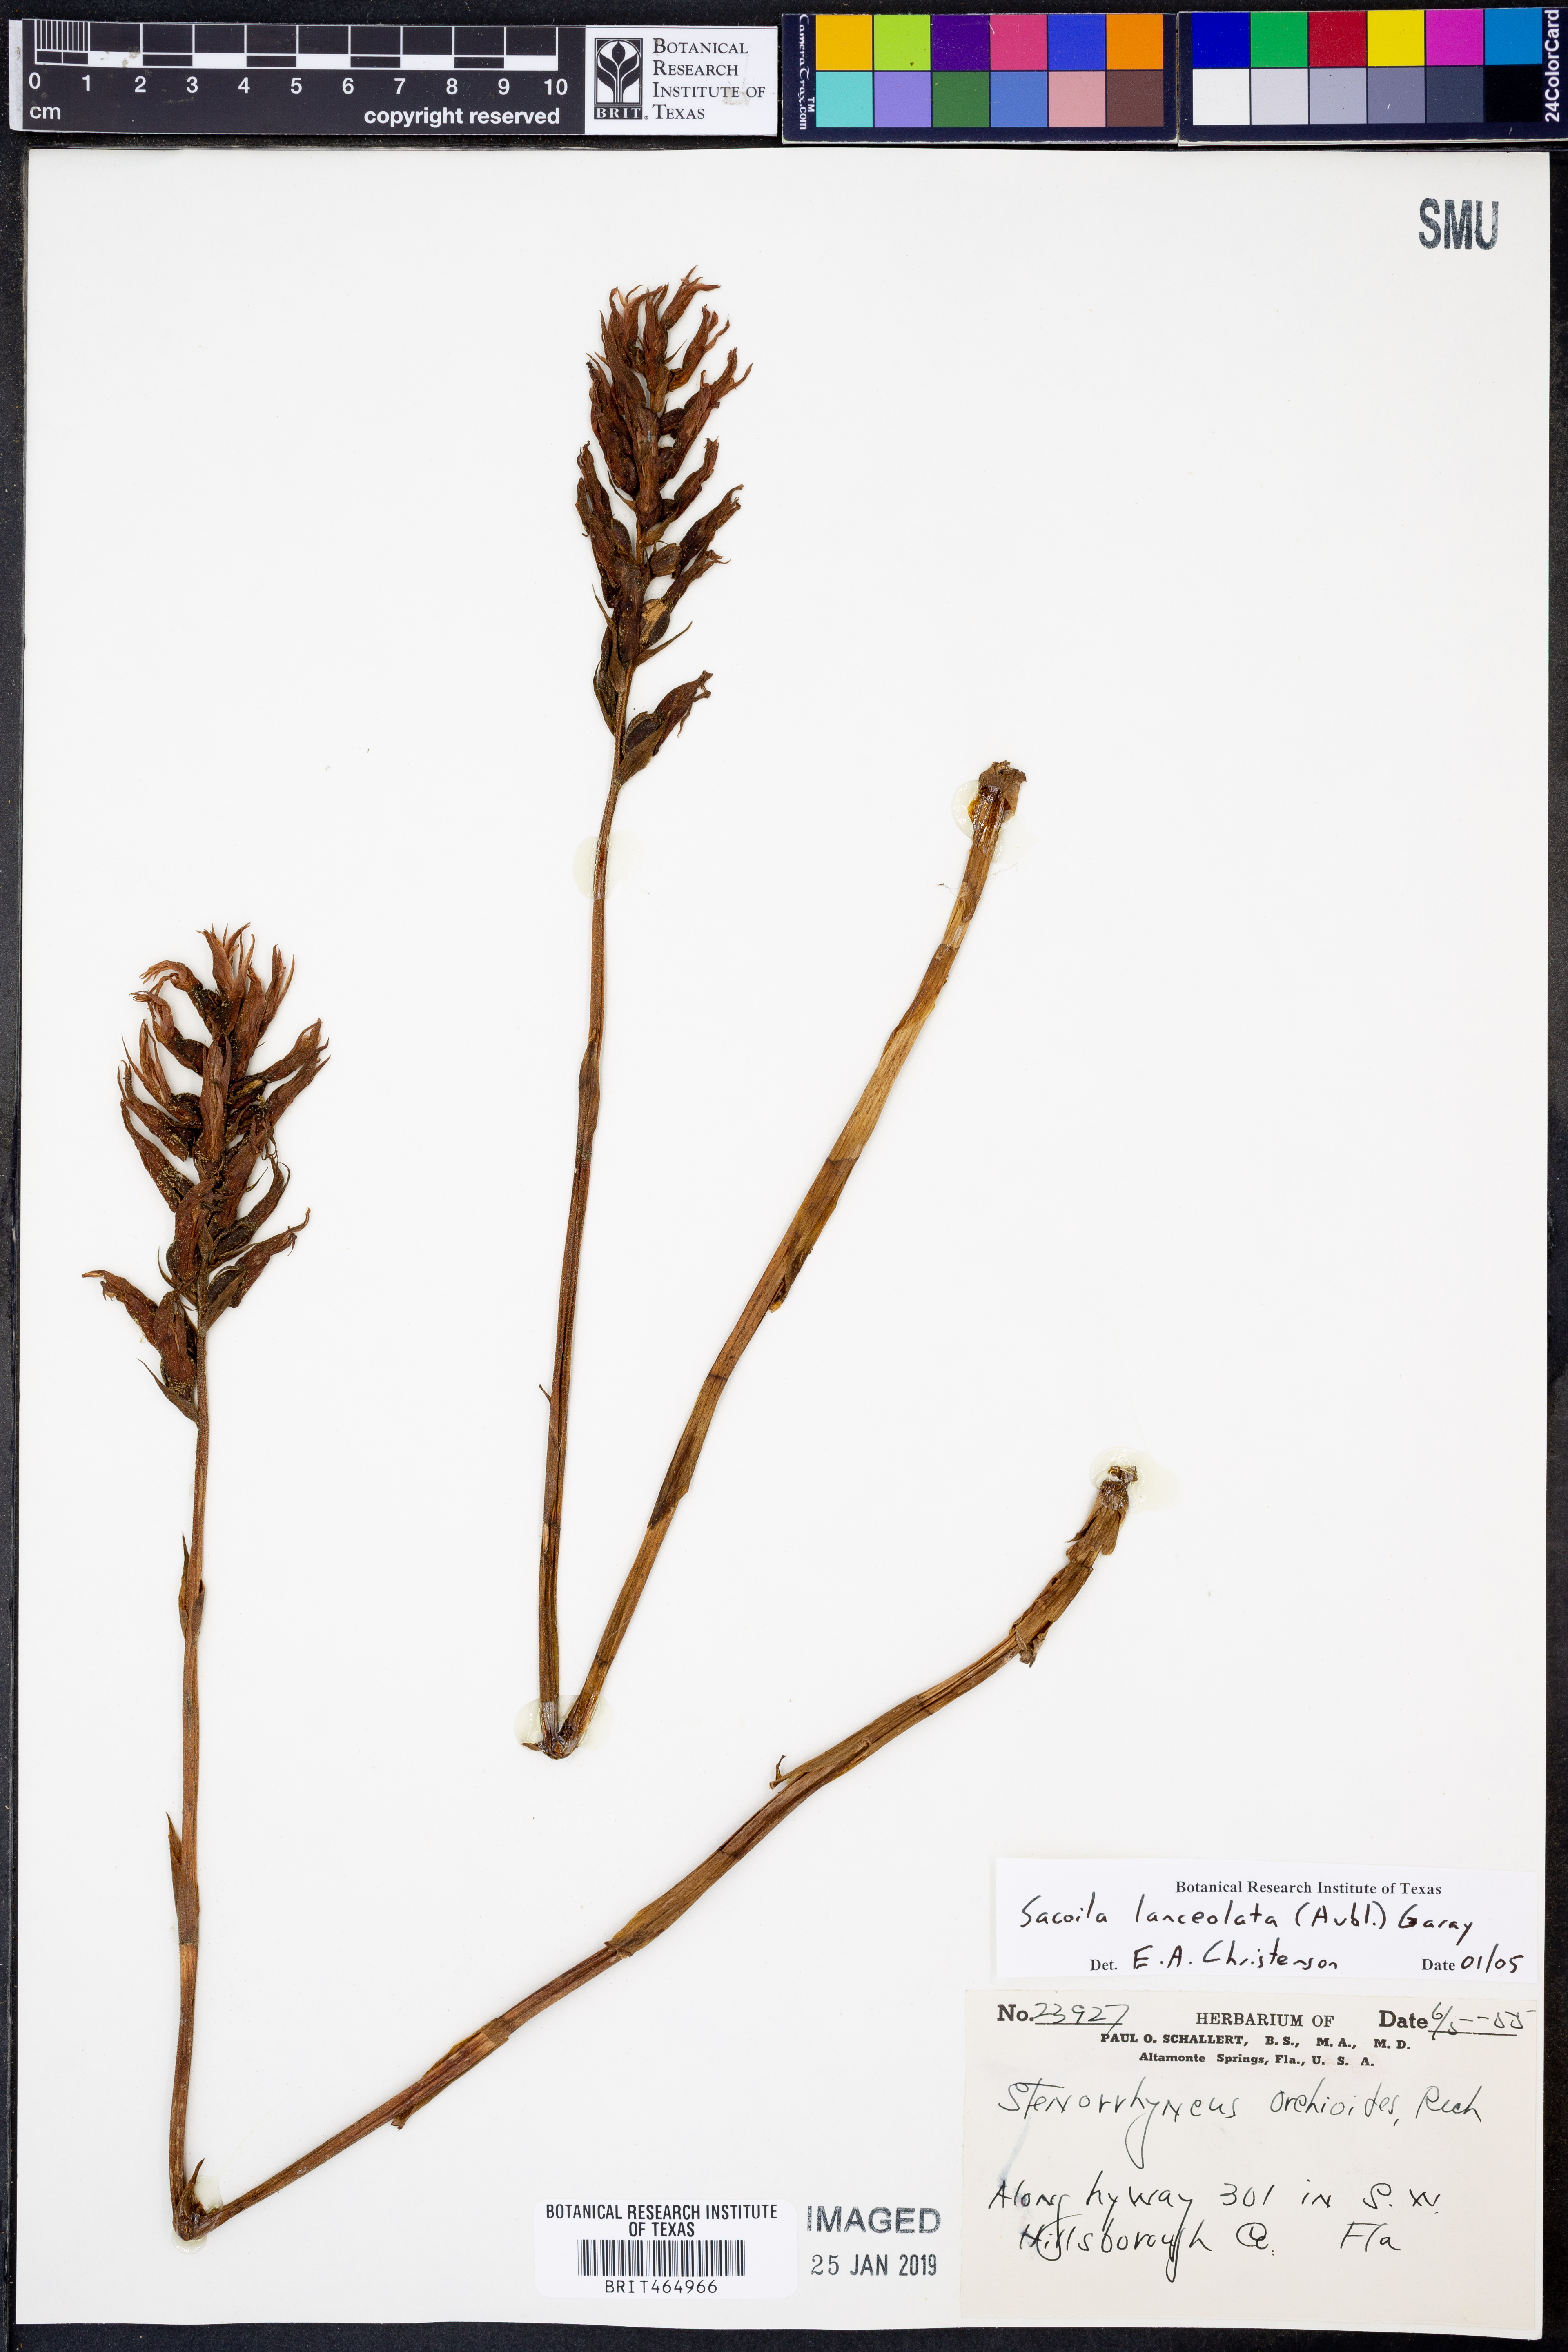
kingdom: Plantae
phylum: Tracheophyta
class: Liliopsida
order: Asparagales
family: Orchidaceae
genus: Sacoila
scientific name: Sacoila lanceolata
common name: Leafless beaked ladiestresses
